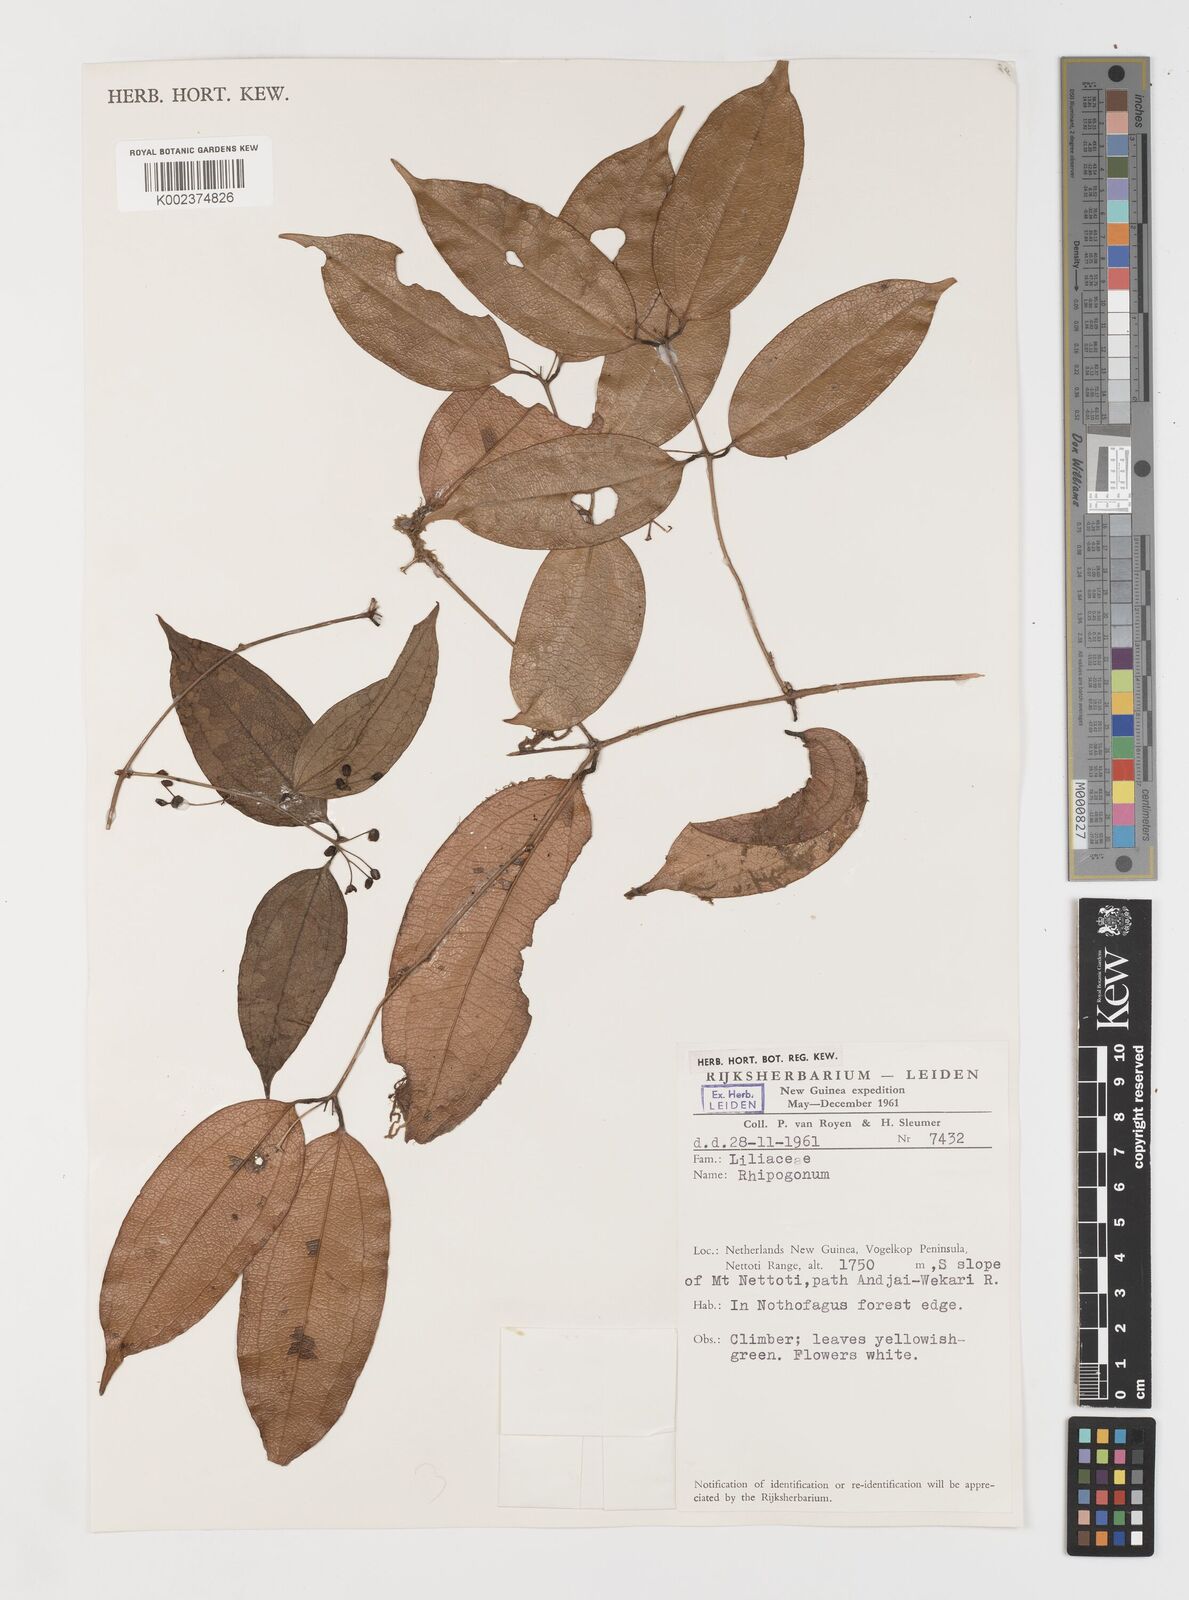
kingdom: Plantae
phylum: Tracheophyta
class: Liliopsida
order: Liliales
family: Ripogonaceae
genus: Ripogonum
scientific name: Ripogonum
